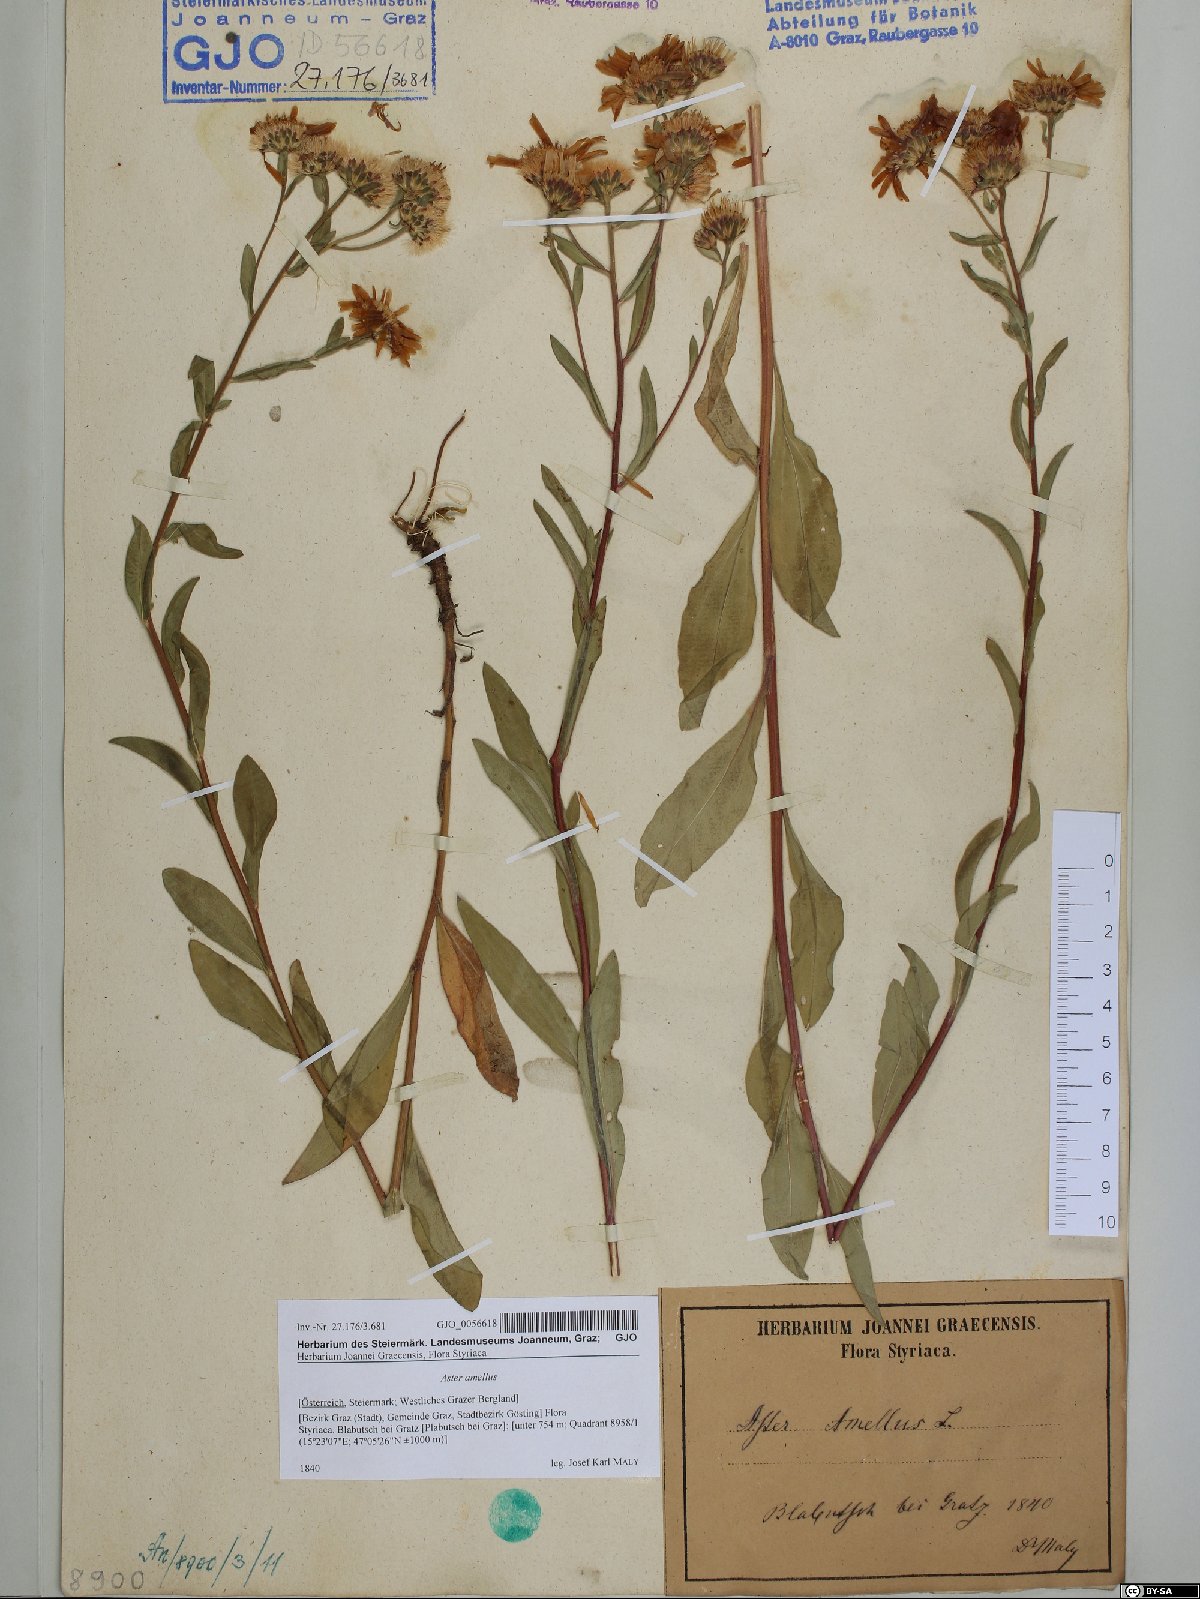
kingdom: Plantae
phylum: Tracheophyta
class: Magnoliopsida
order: Asterales
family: Asteraceae
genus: Aster
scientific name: Aster amellus
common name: European michaelmas daisy
